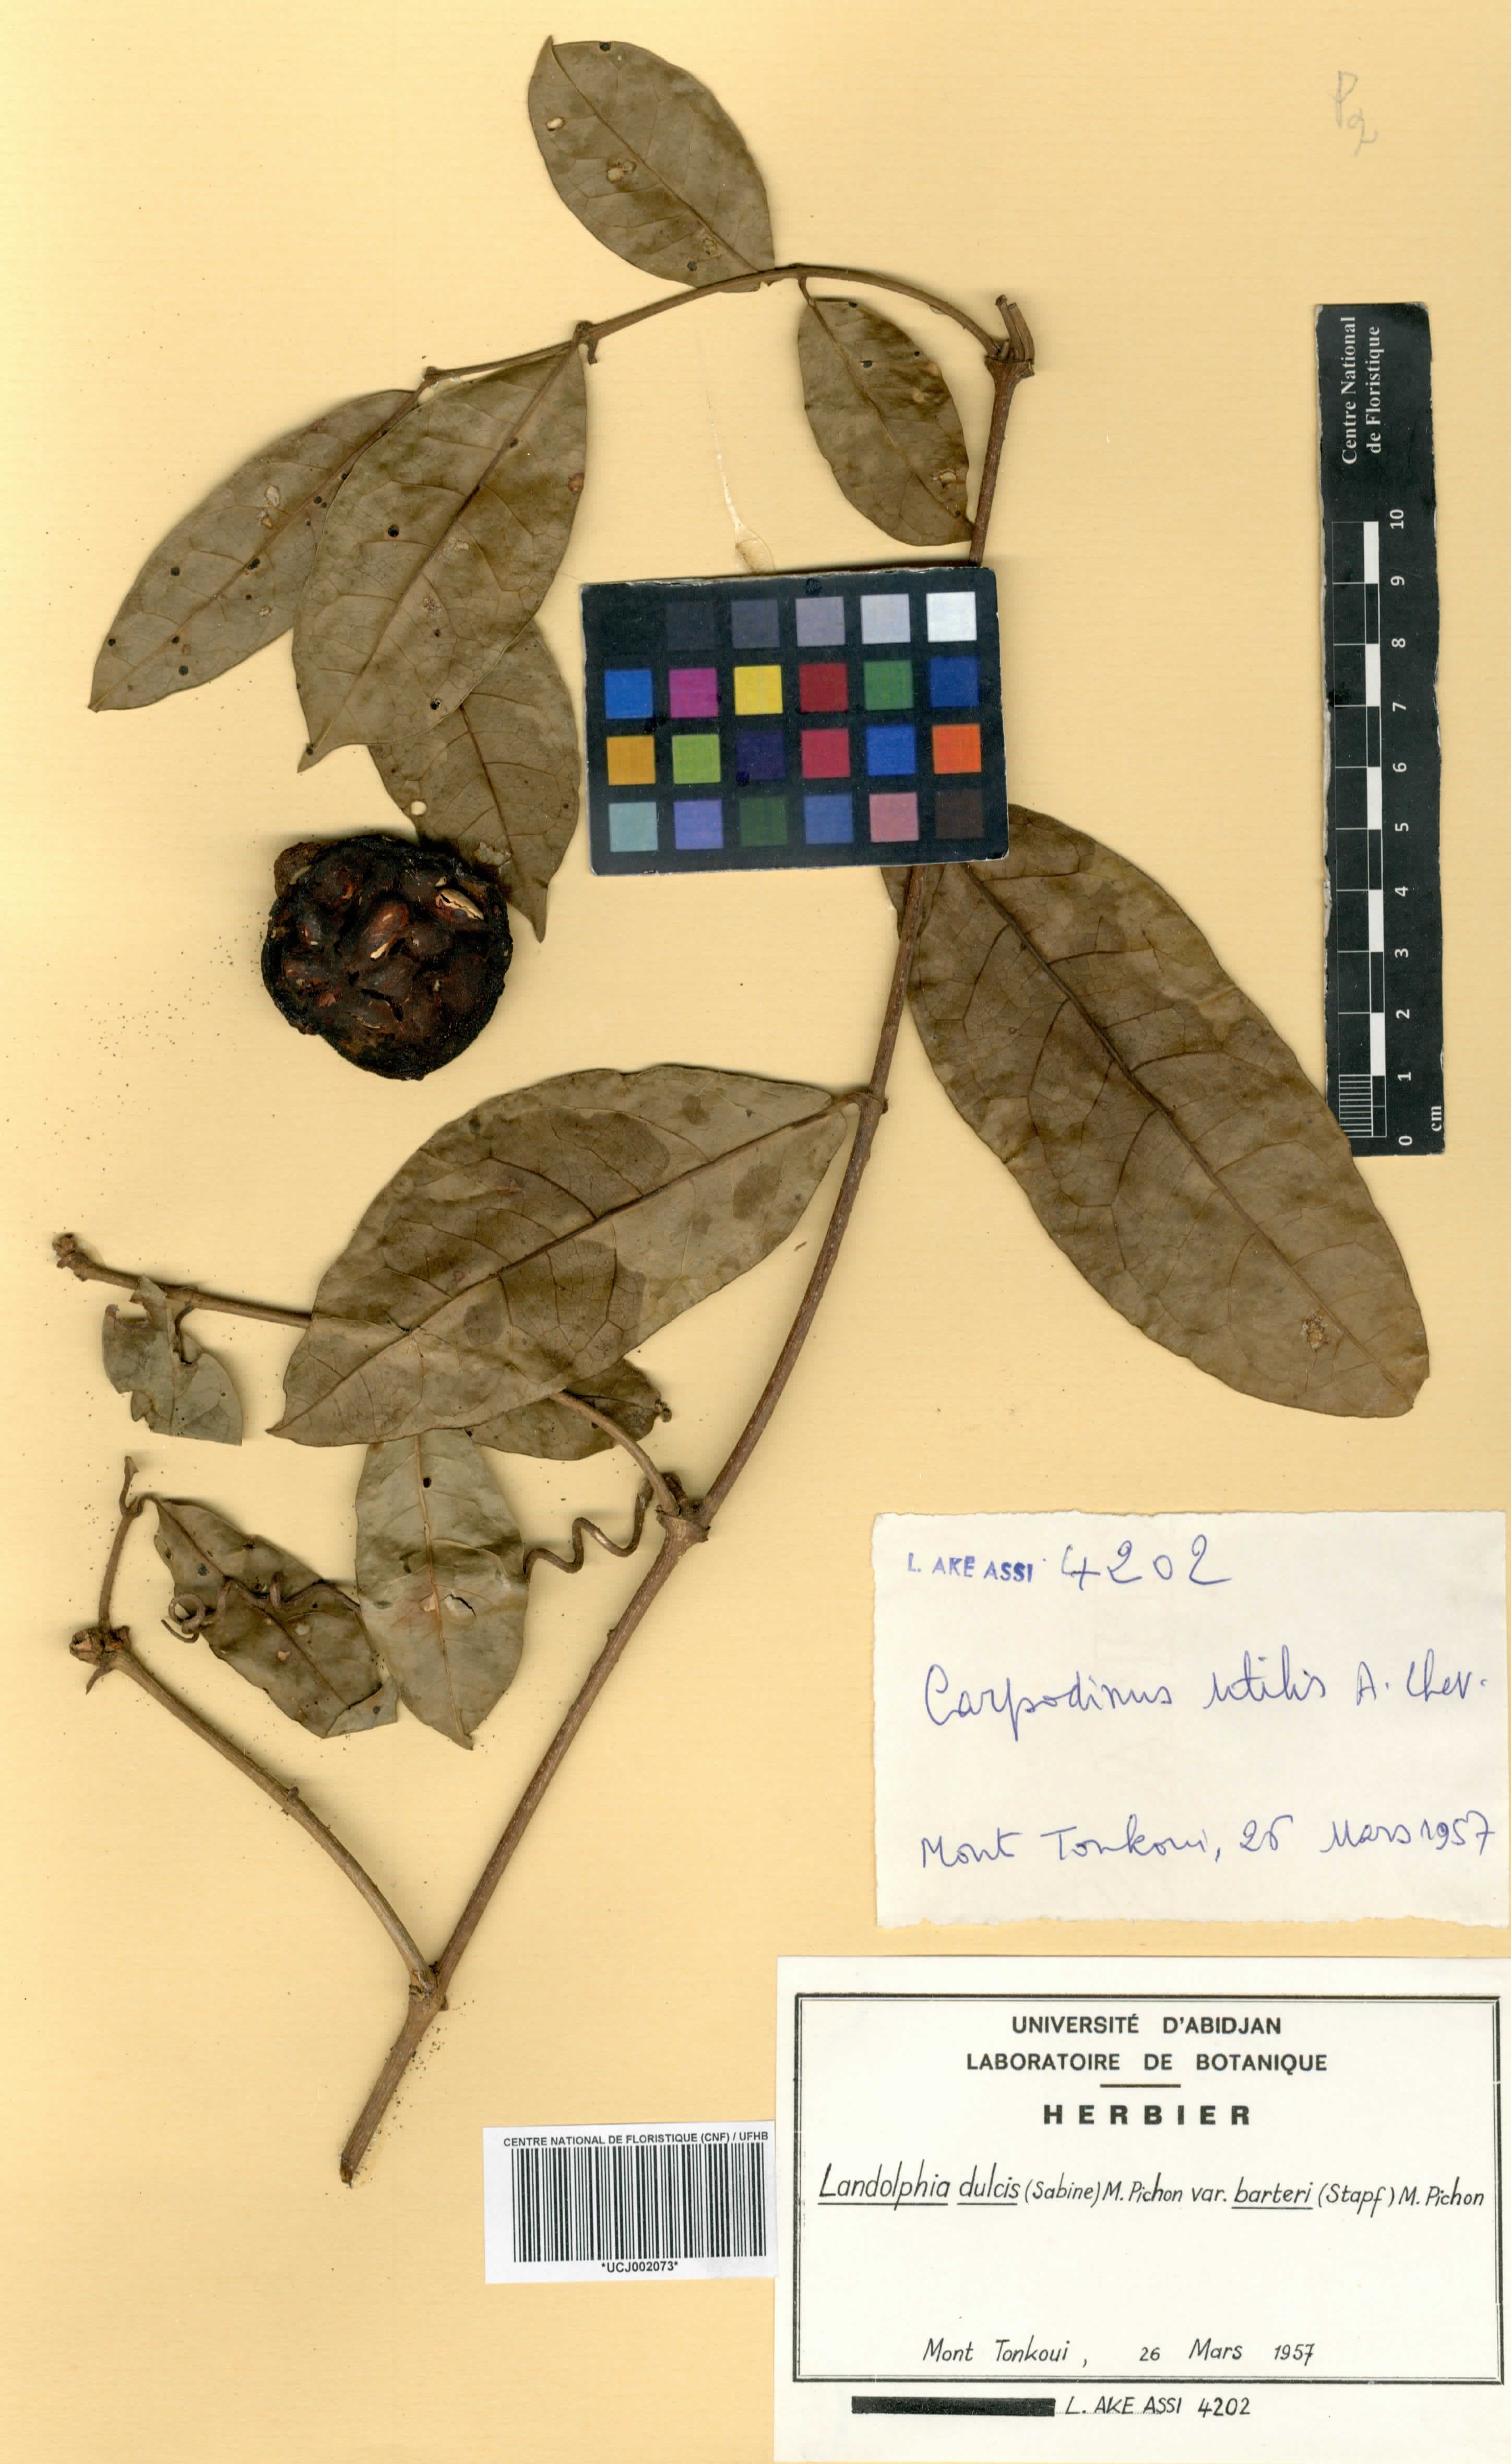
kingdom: Plantae
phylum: Tracheophyta
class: Magnoliopsida
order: Gentianales
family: Apocynaceae
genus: Landolphia
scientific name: Landolphia dulcis
